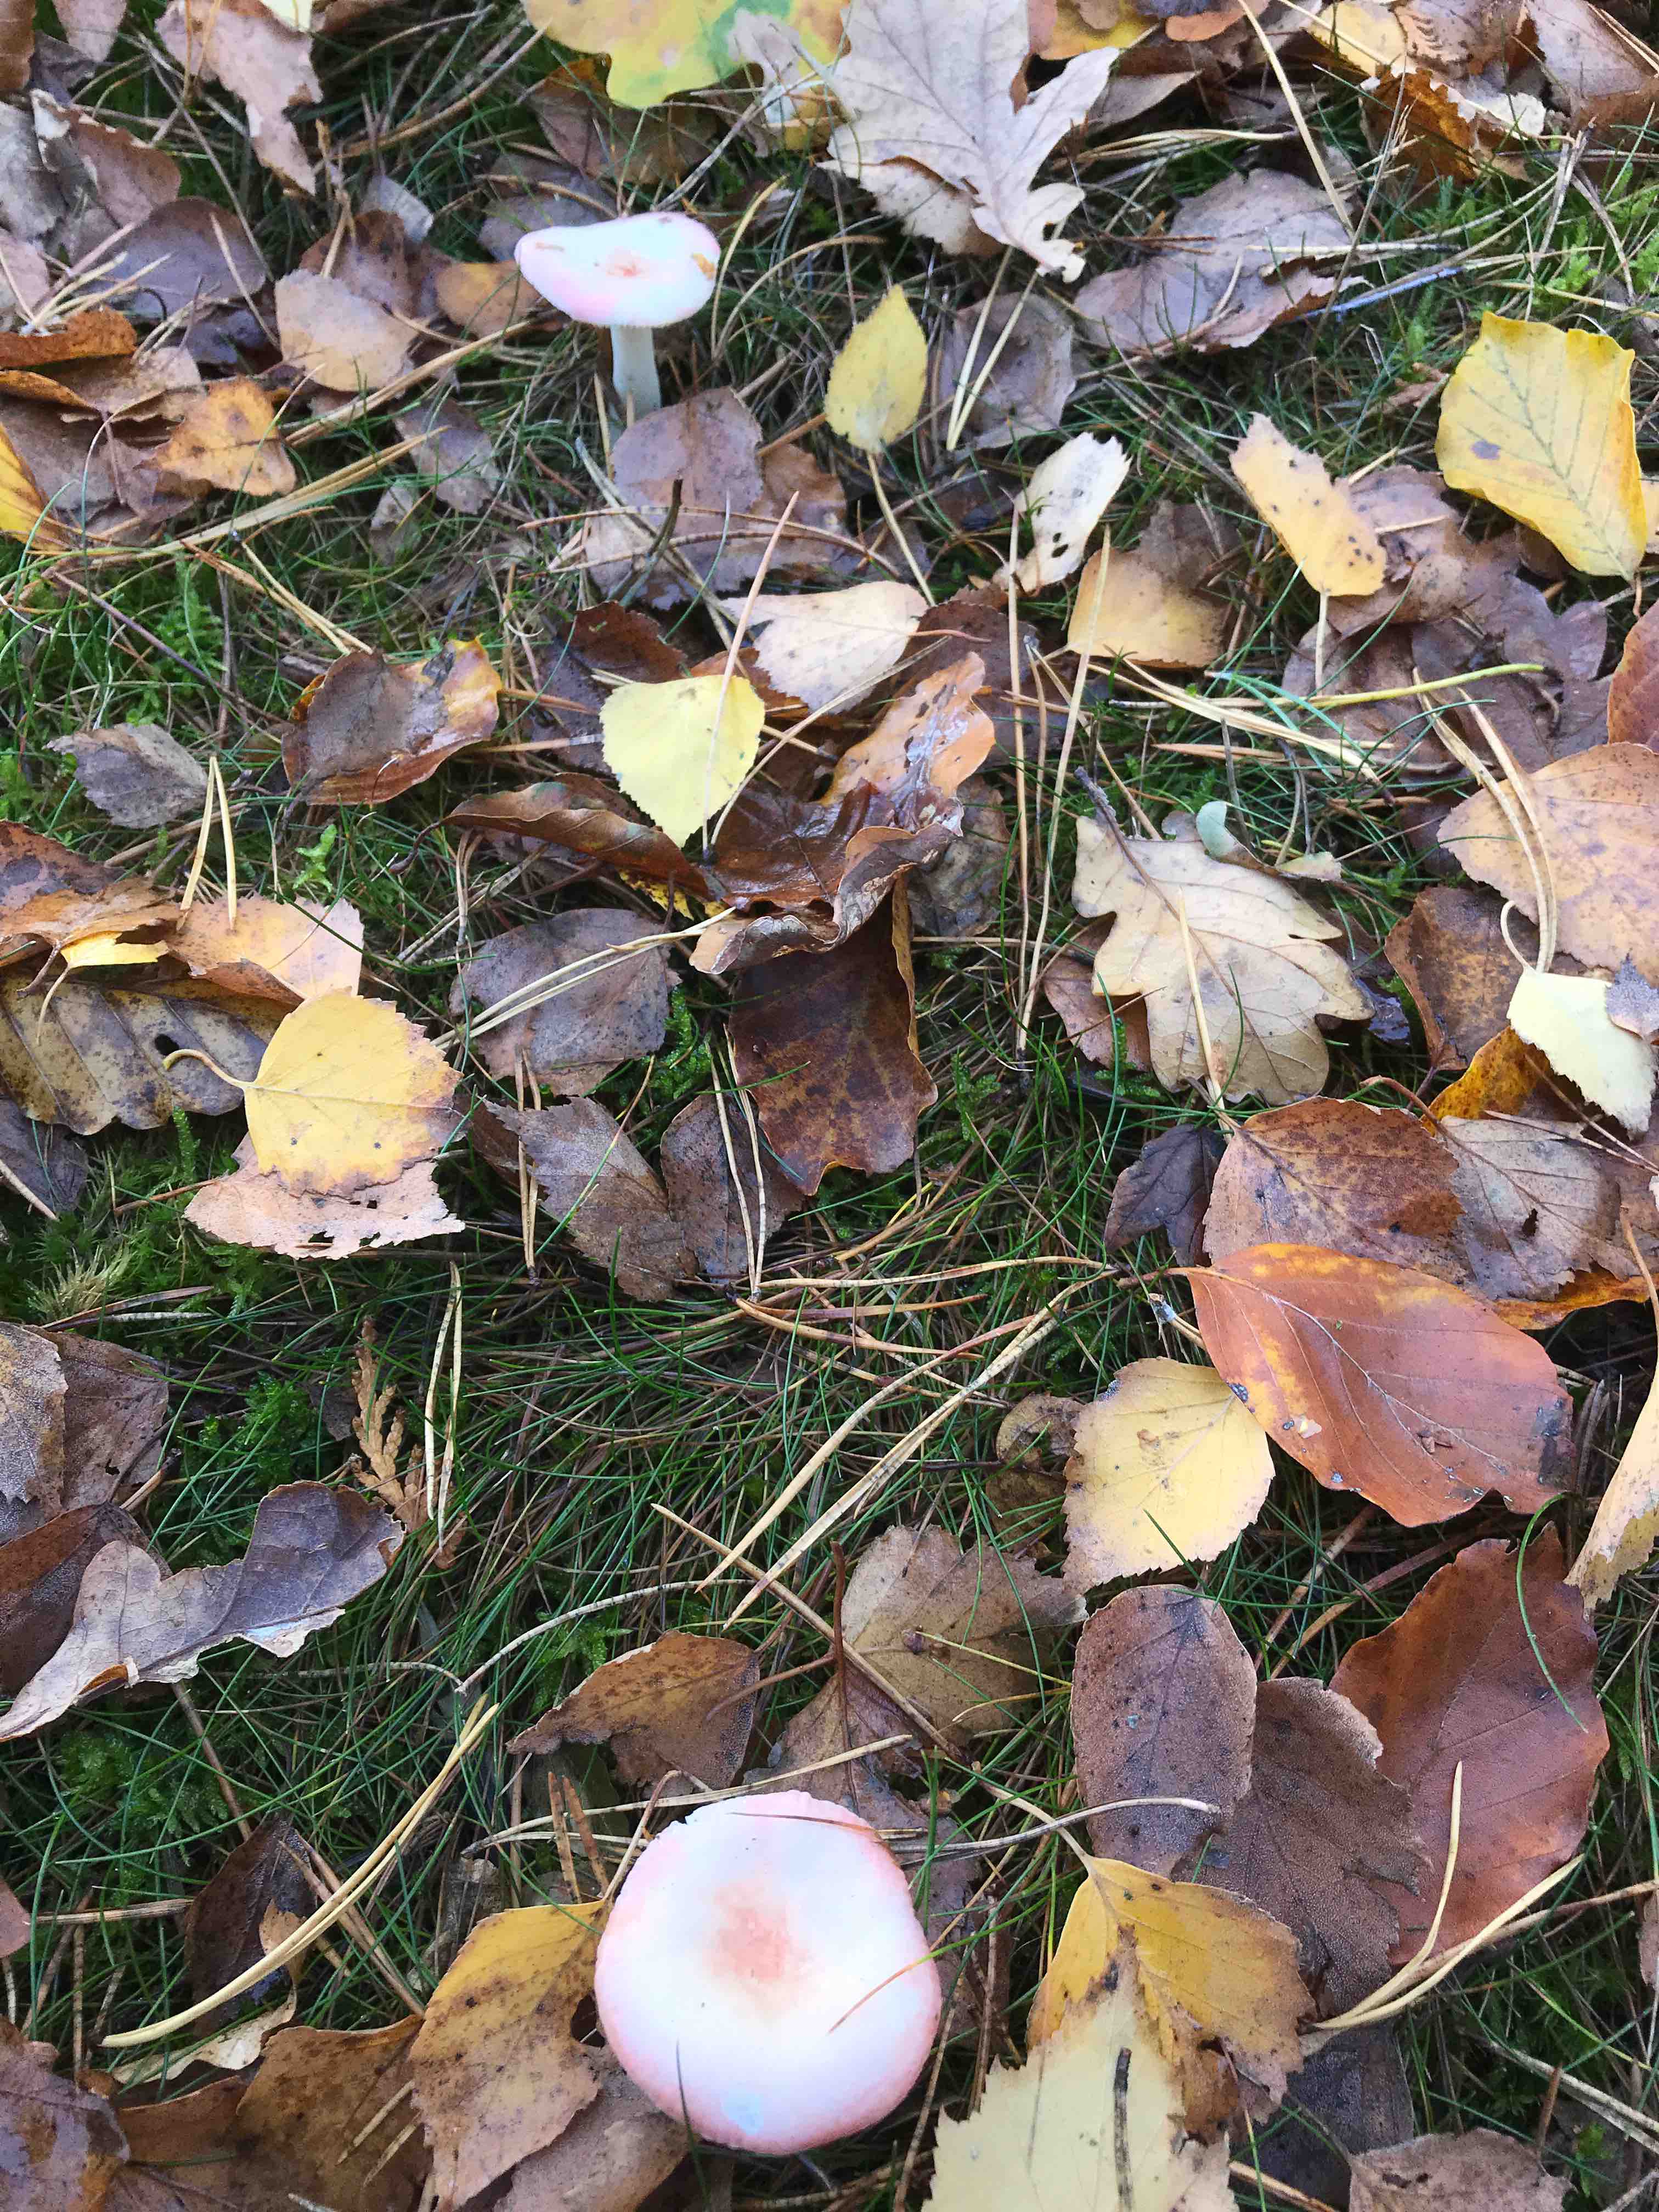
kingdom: Fungi
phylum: Basidiomycota
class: Agaricomycetes
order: Russulales
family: Russulaceae
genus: Russula
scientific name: Russula
